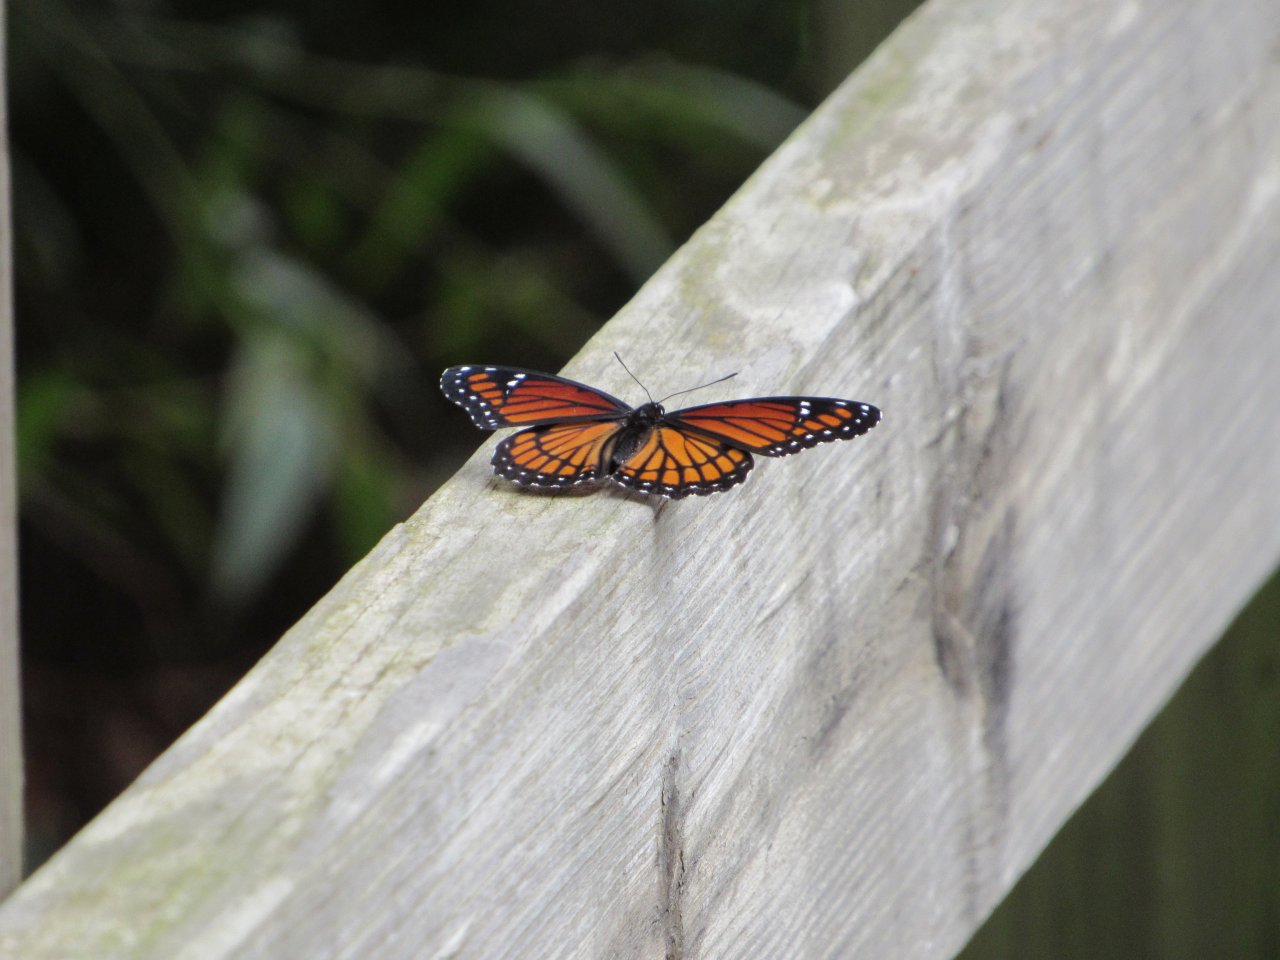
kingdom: Animalia
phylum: Arthropoda
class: Insecta
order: Lepidoptera
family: Nymphalidae
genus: Limenitis
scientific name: Limenitis archippus
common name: Viceroy
